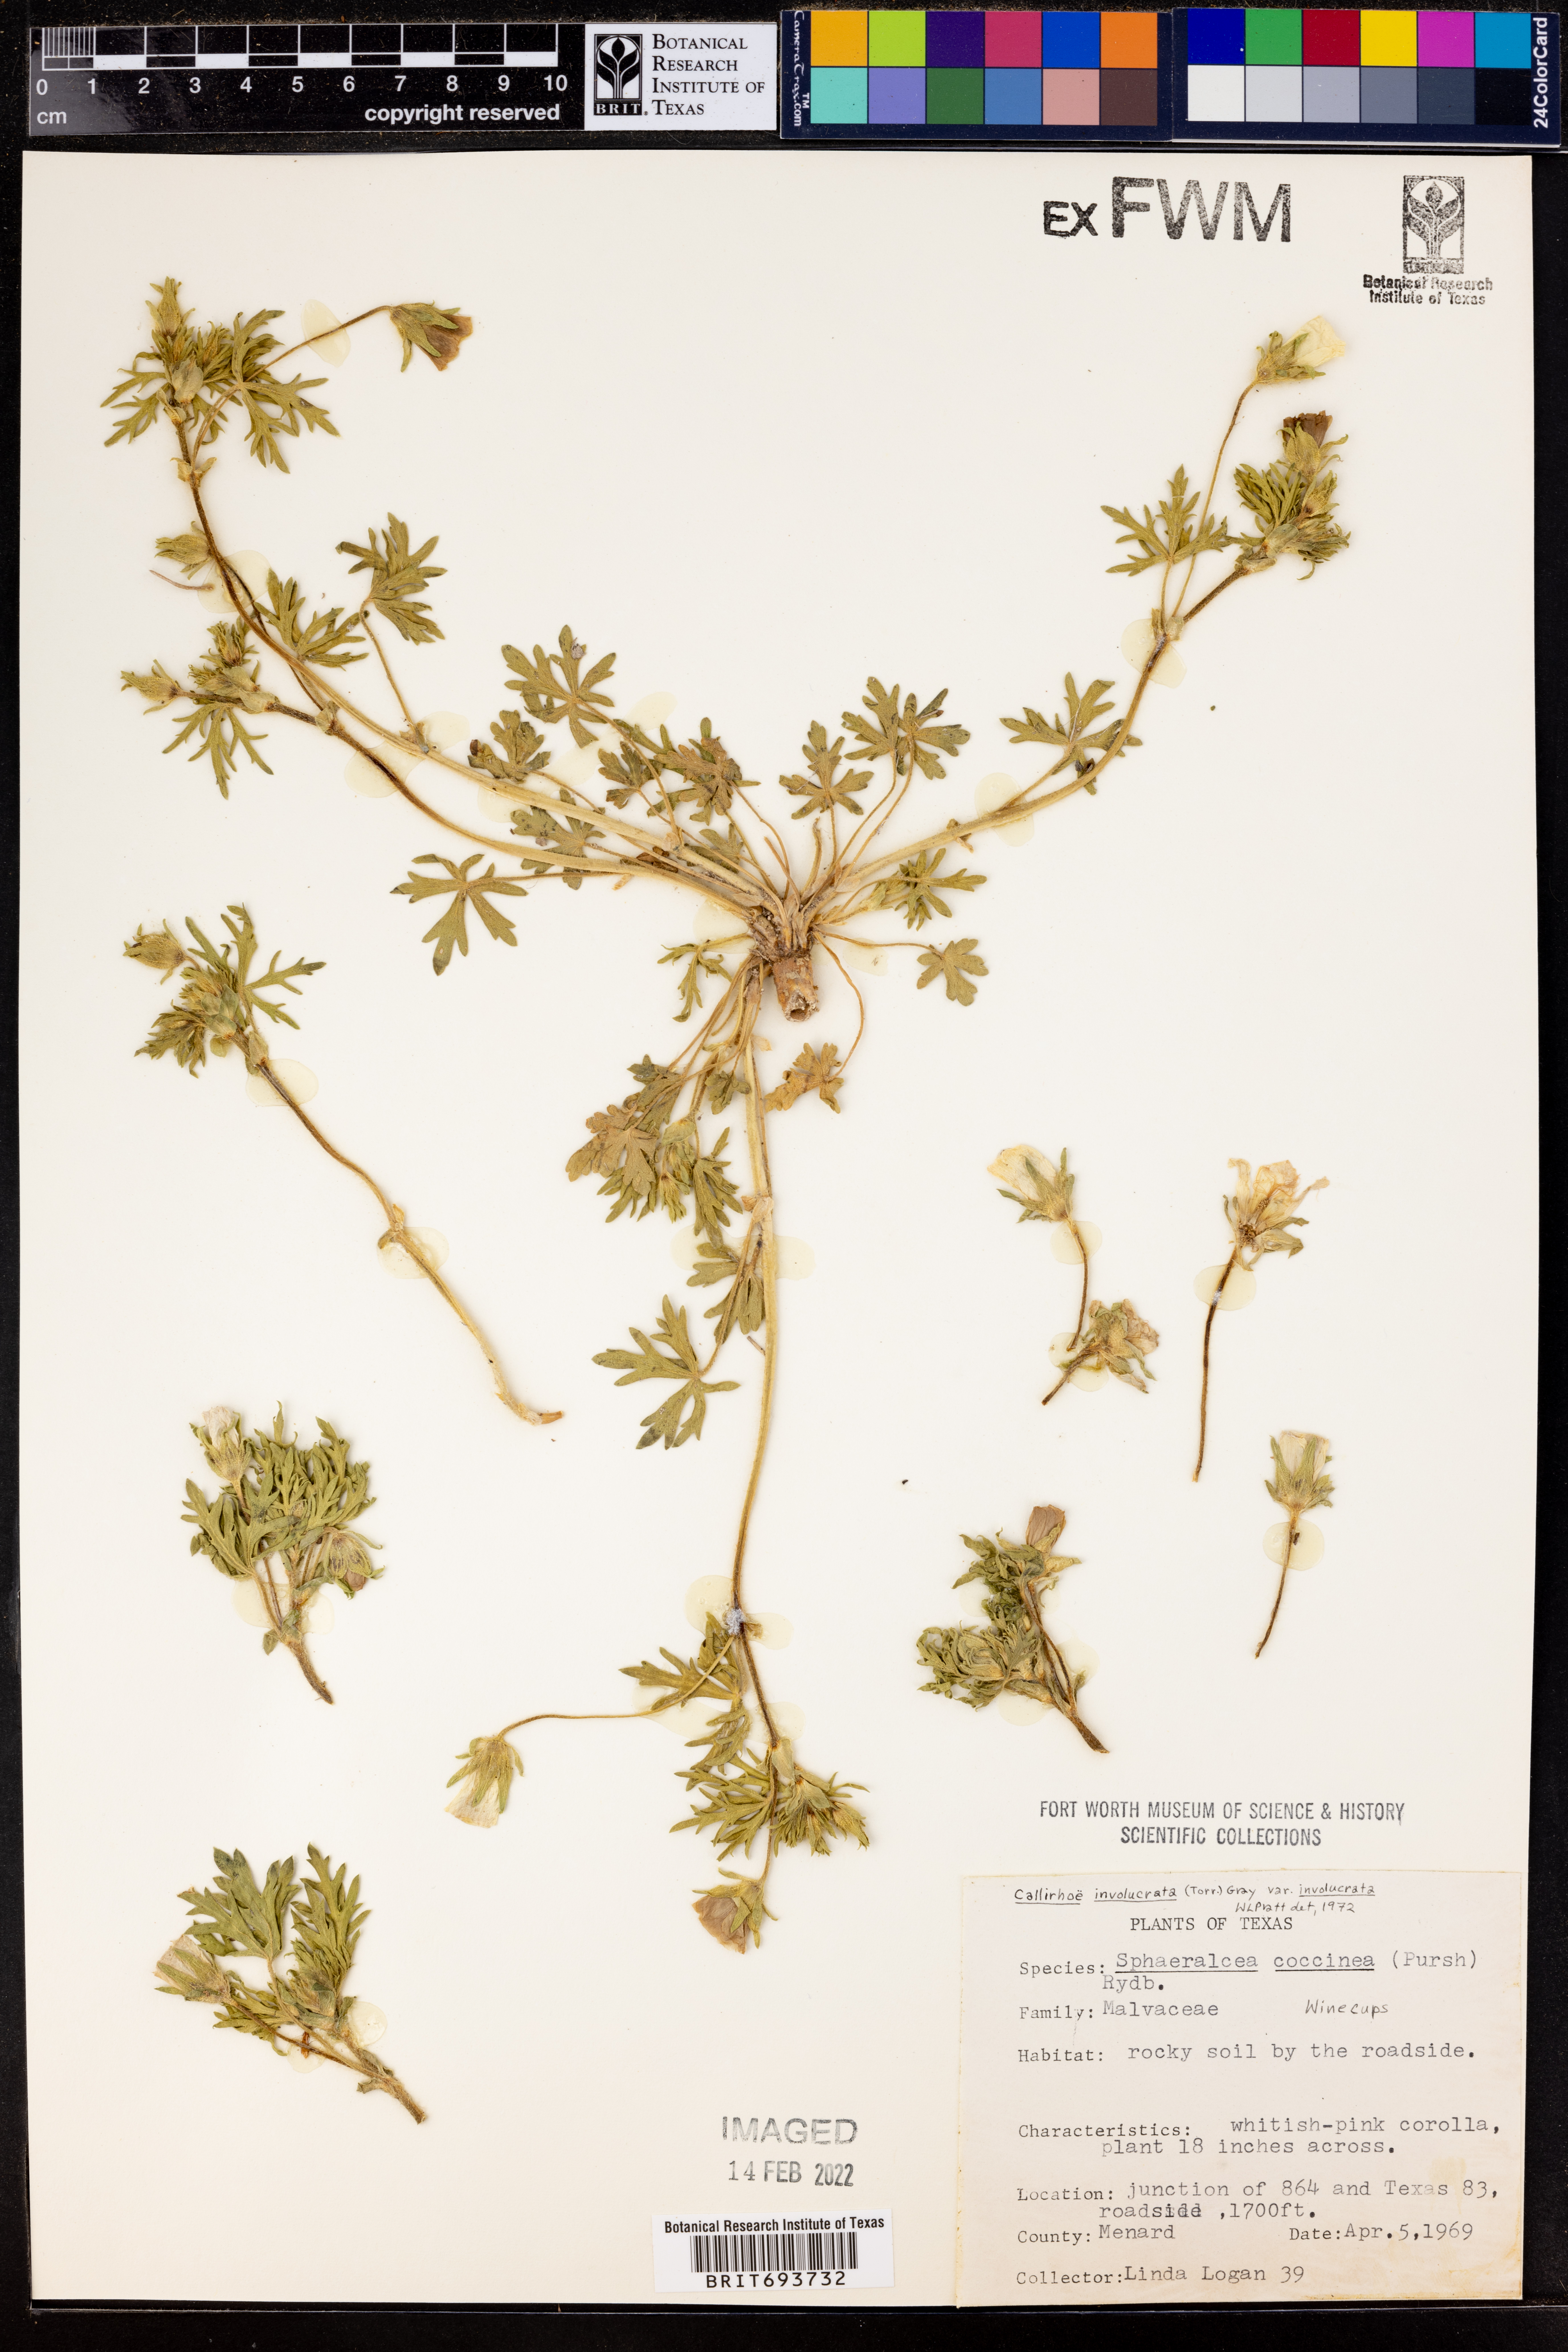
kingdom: Plantae
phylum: Tracheophyta
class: Magnoliopsida
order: Malvales
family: Malvaceae
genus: Callirhoe
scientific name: Callirhoe involucrata
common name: Purple poppy-mallow
